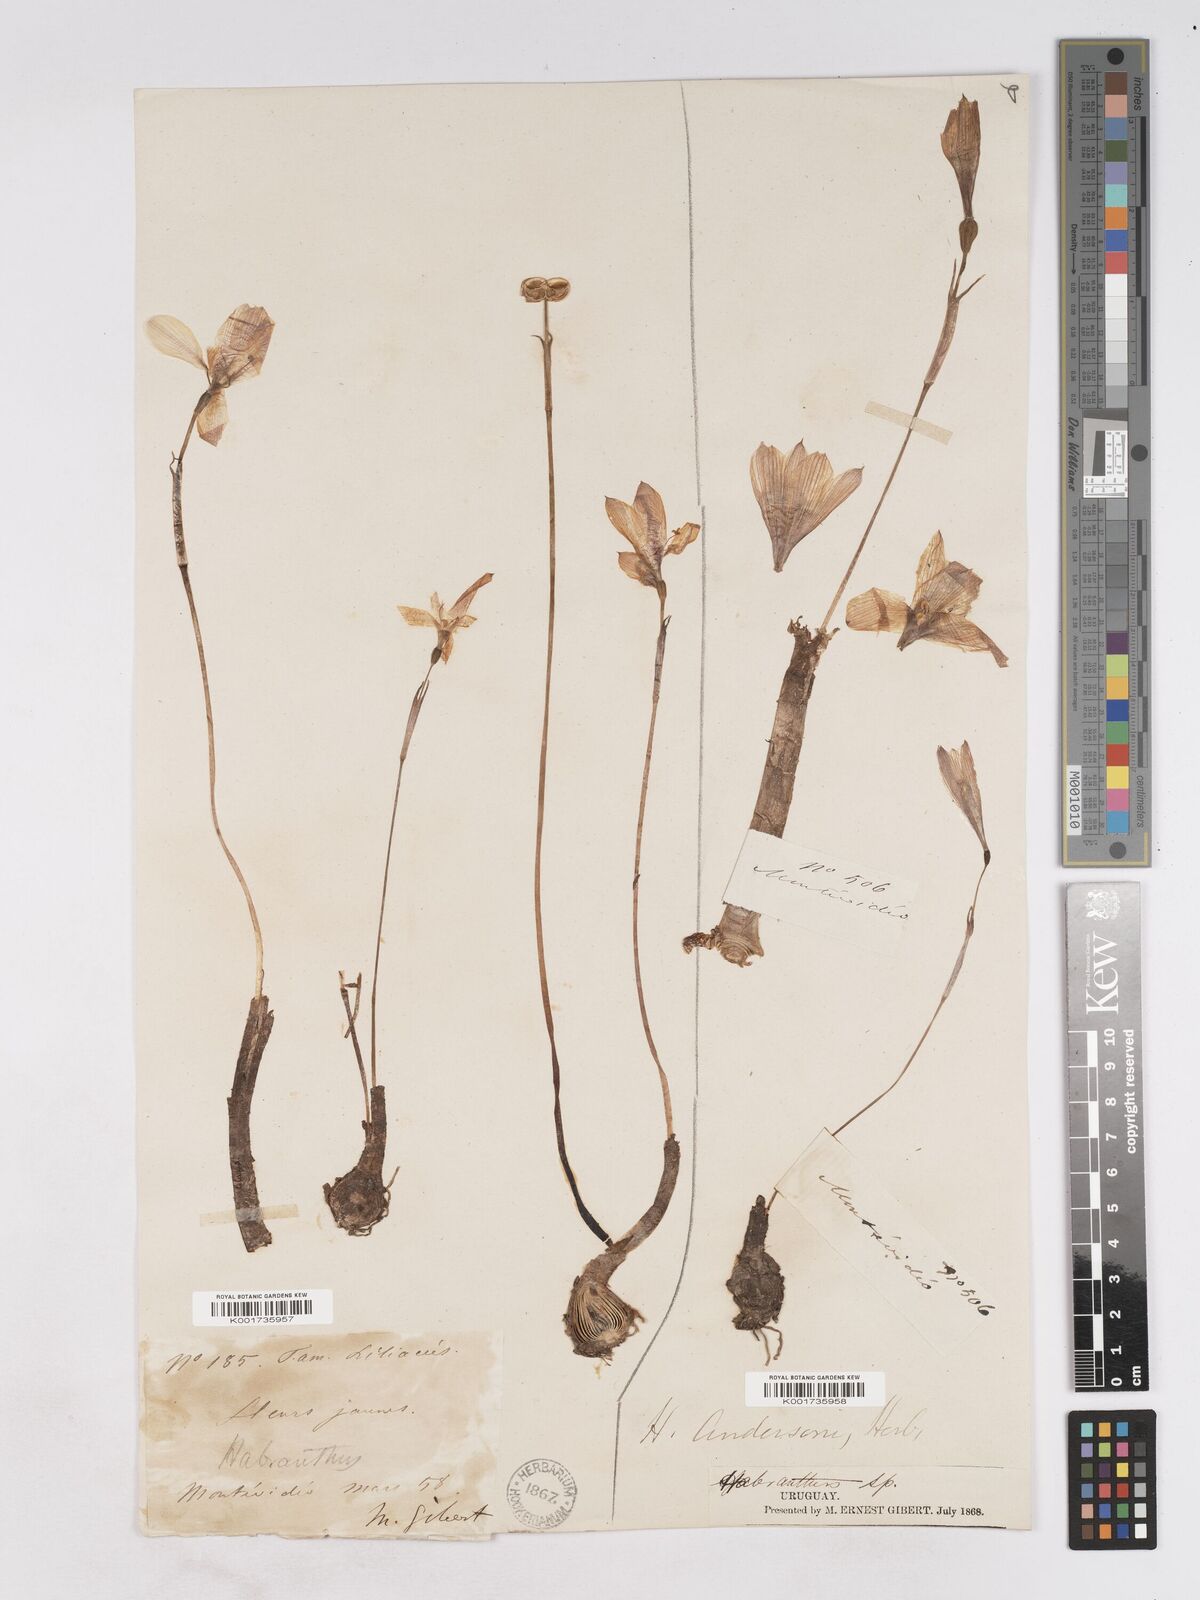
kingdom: Plantae
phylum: Tracheophyta
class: Liliopsida
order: Asparagales
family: Amaryllidaceae
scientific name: Amaryllidaceae
